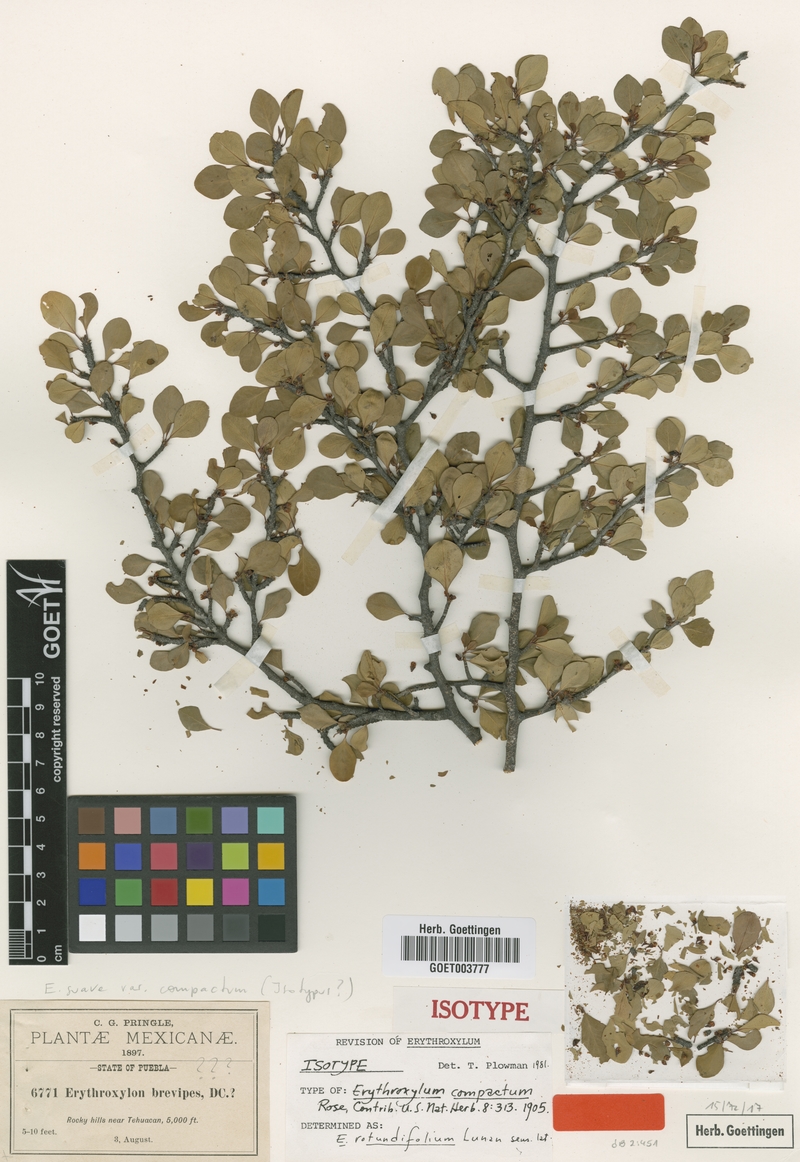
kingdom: Plantae
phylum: Tracheophyta
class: Magnoliopsida
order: Malpighiales
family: Erythroxylaceae
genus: Erythroxylum
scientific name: Erythroxylum rotundifolium
